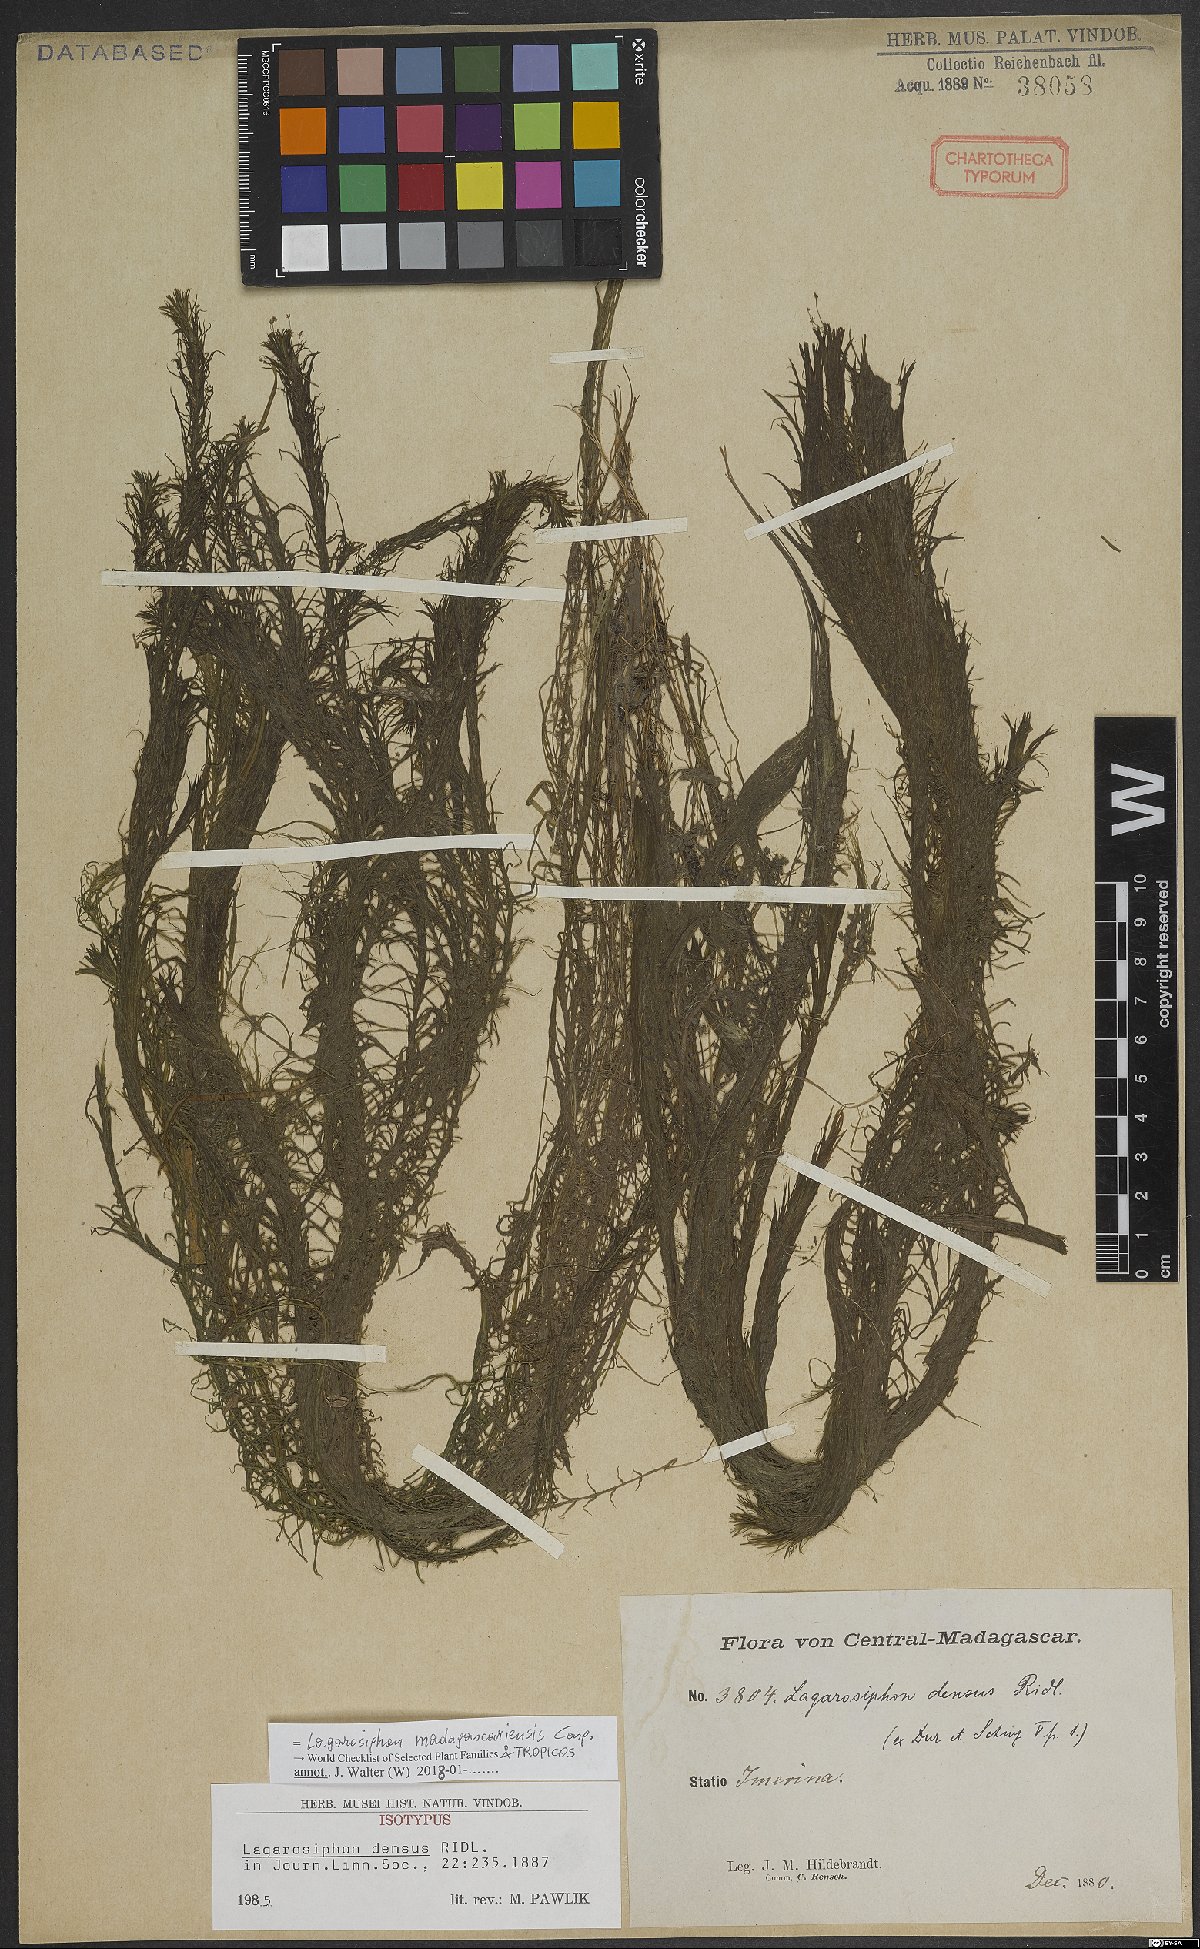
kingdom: Plantae
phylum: Tracheophyta
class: Liliopsida
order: Alismatales
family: Hydrocharitaceae
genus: Lagarosiphon
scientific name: Lagarosiphon madagascariensis
